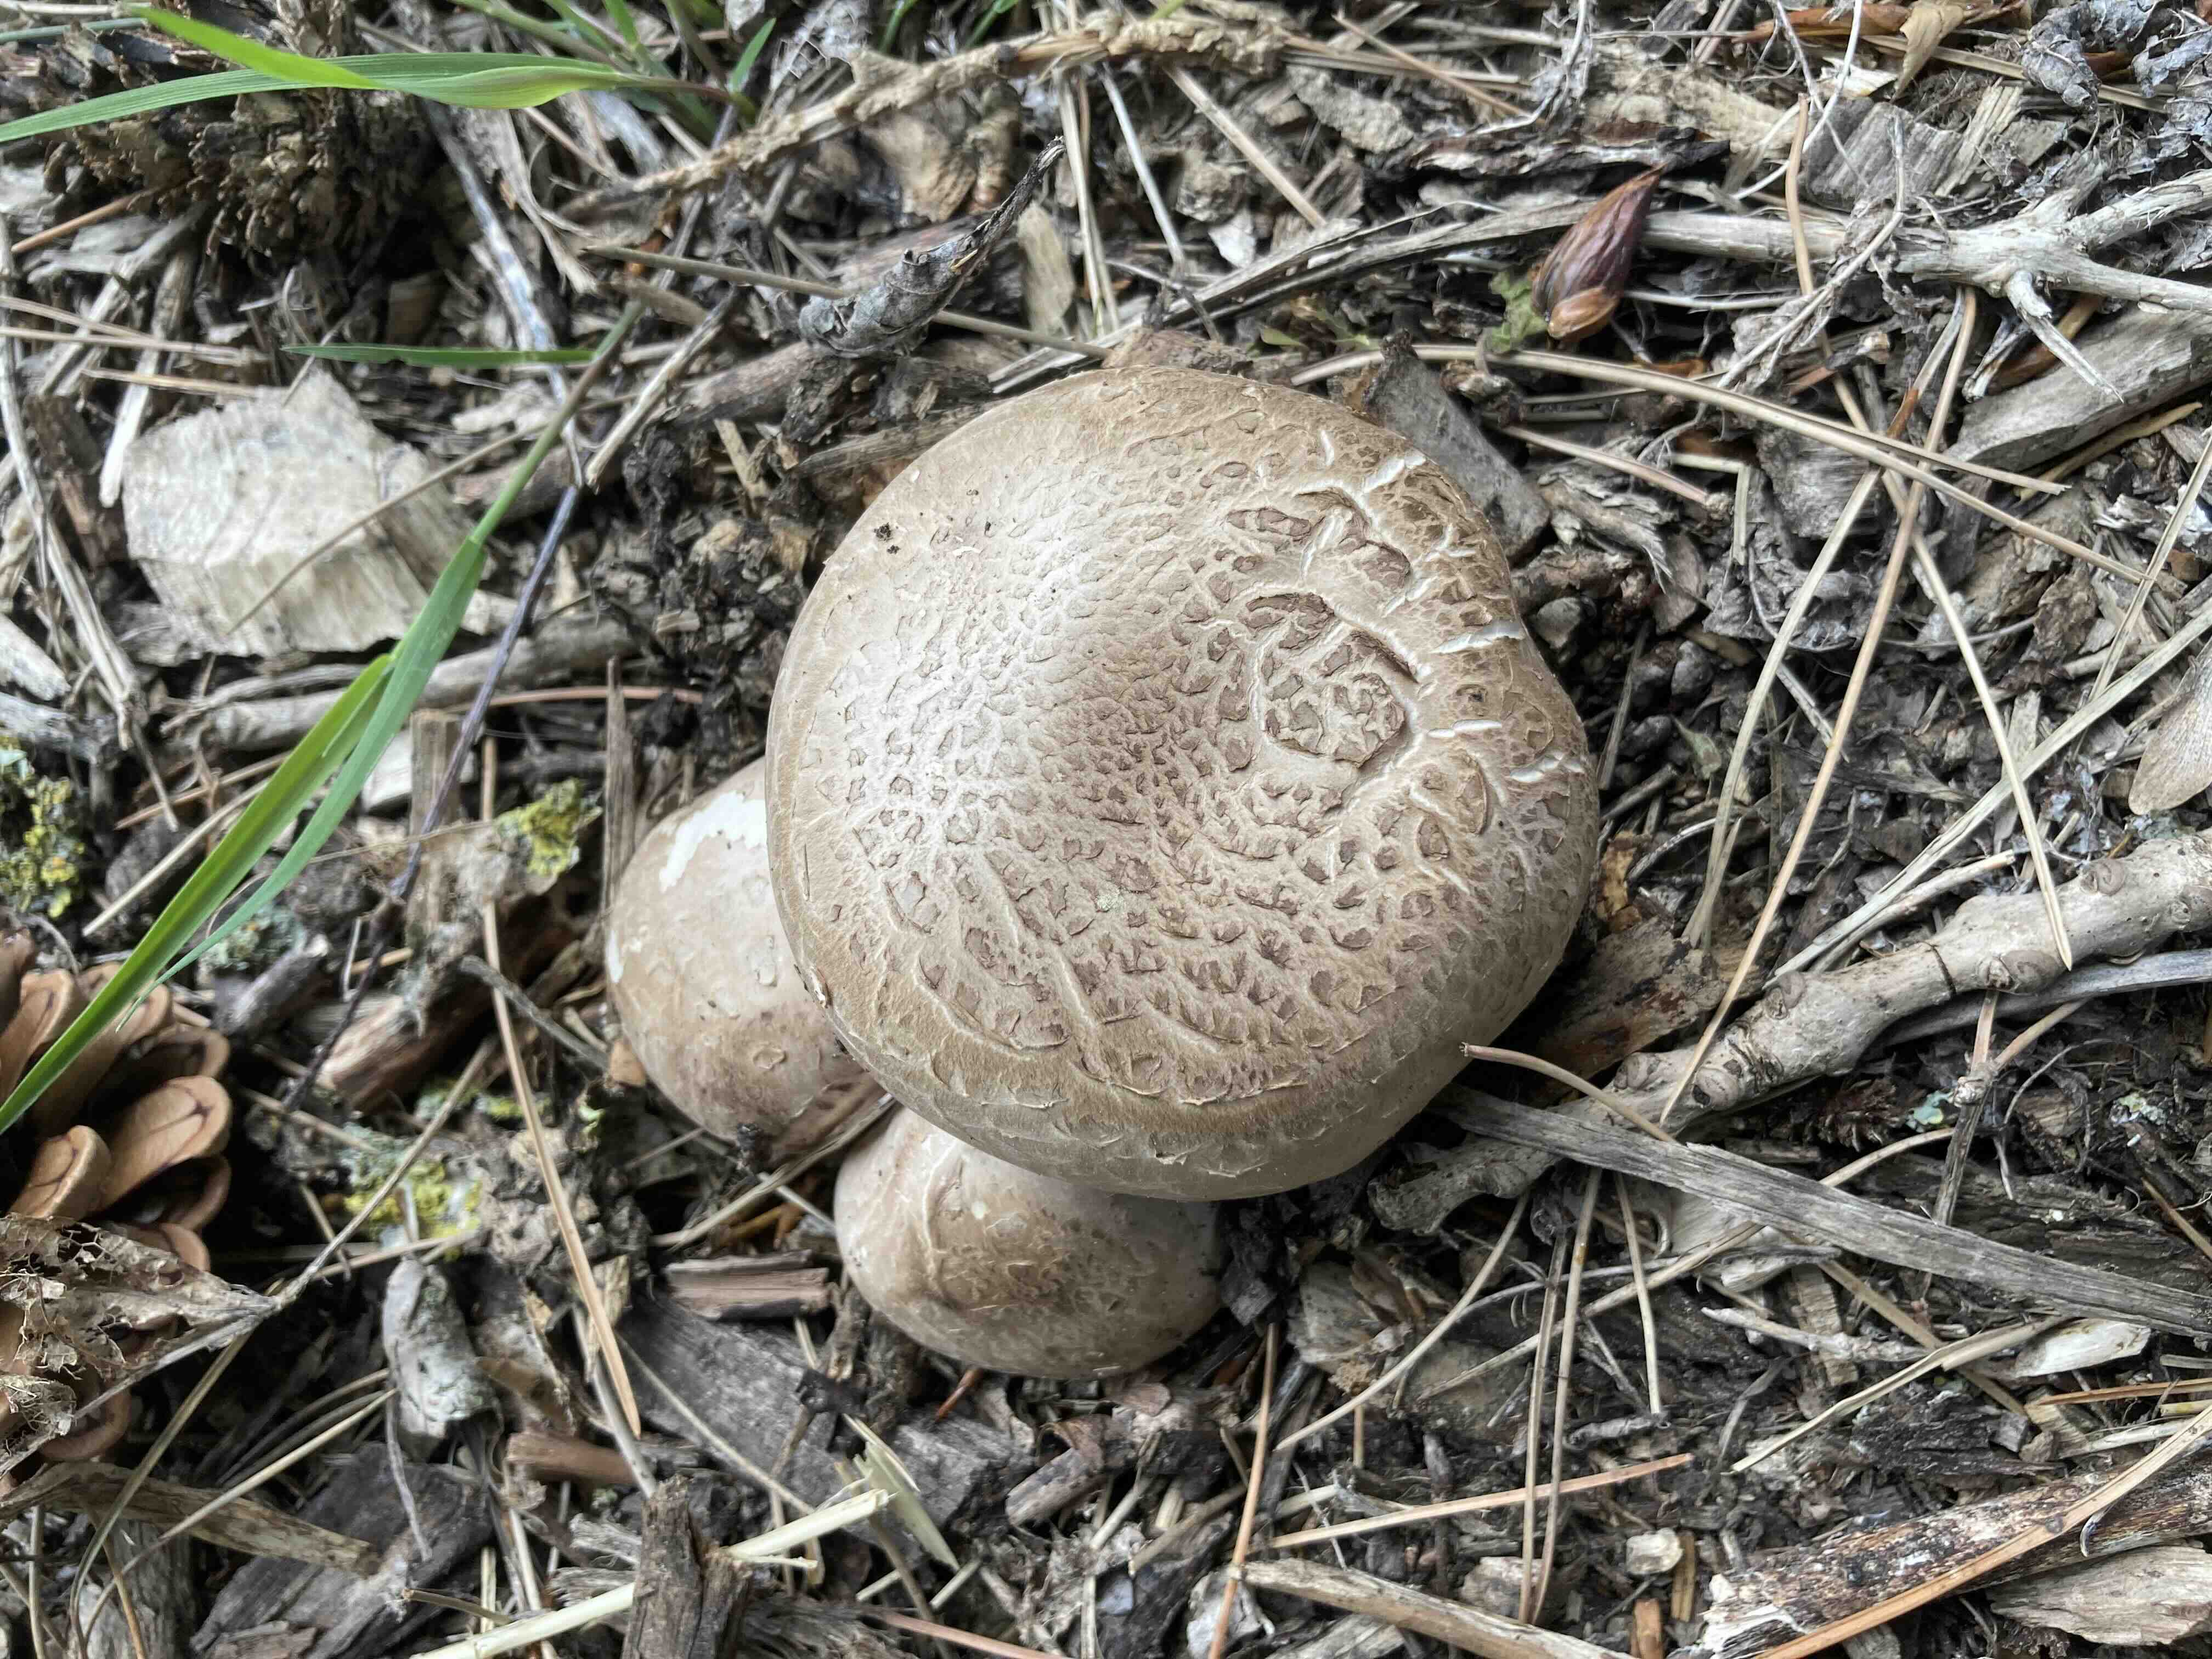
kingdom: Fungi
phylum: Basidiomycota
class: Agaricomycetes
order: Agaricales
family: Agaricaceae
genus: Agaricus
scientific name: Agaricus bisporus
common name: have-champignon
